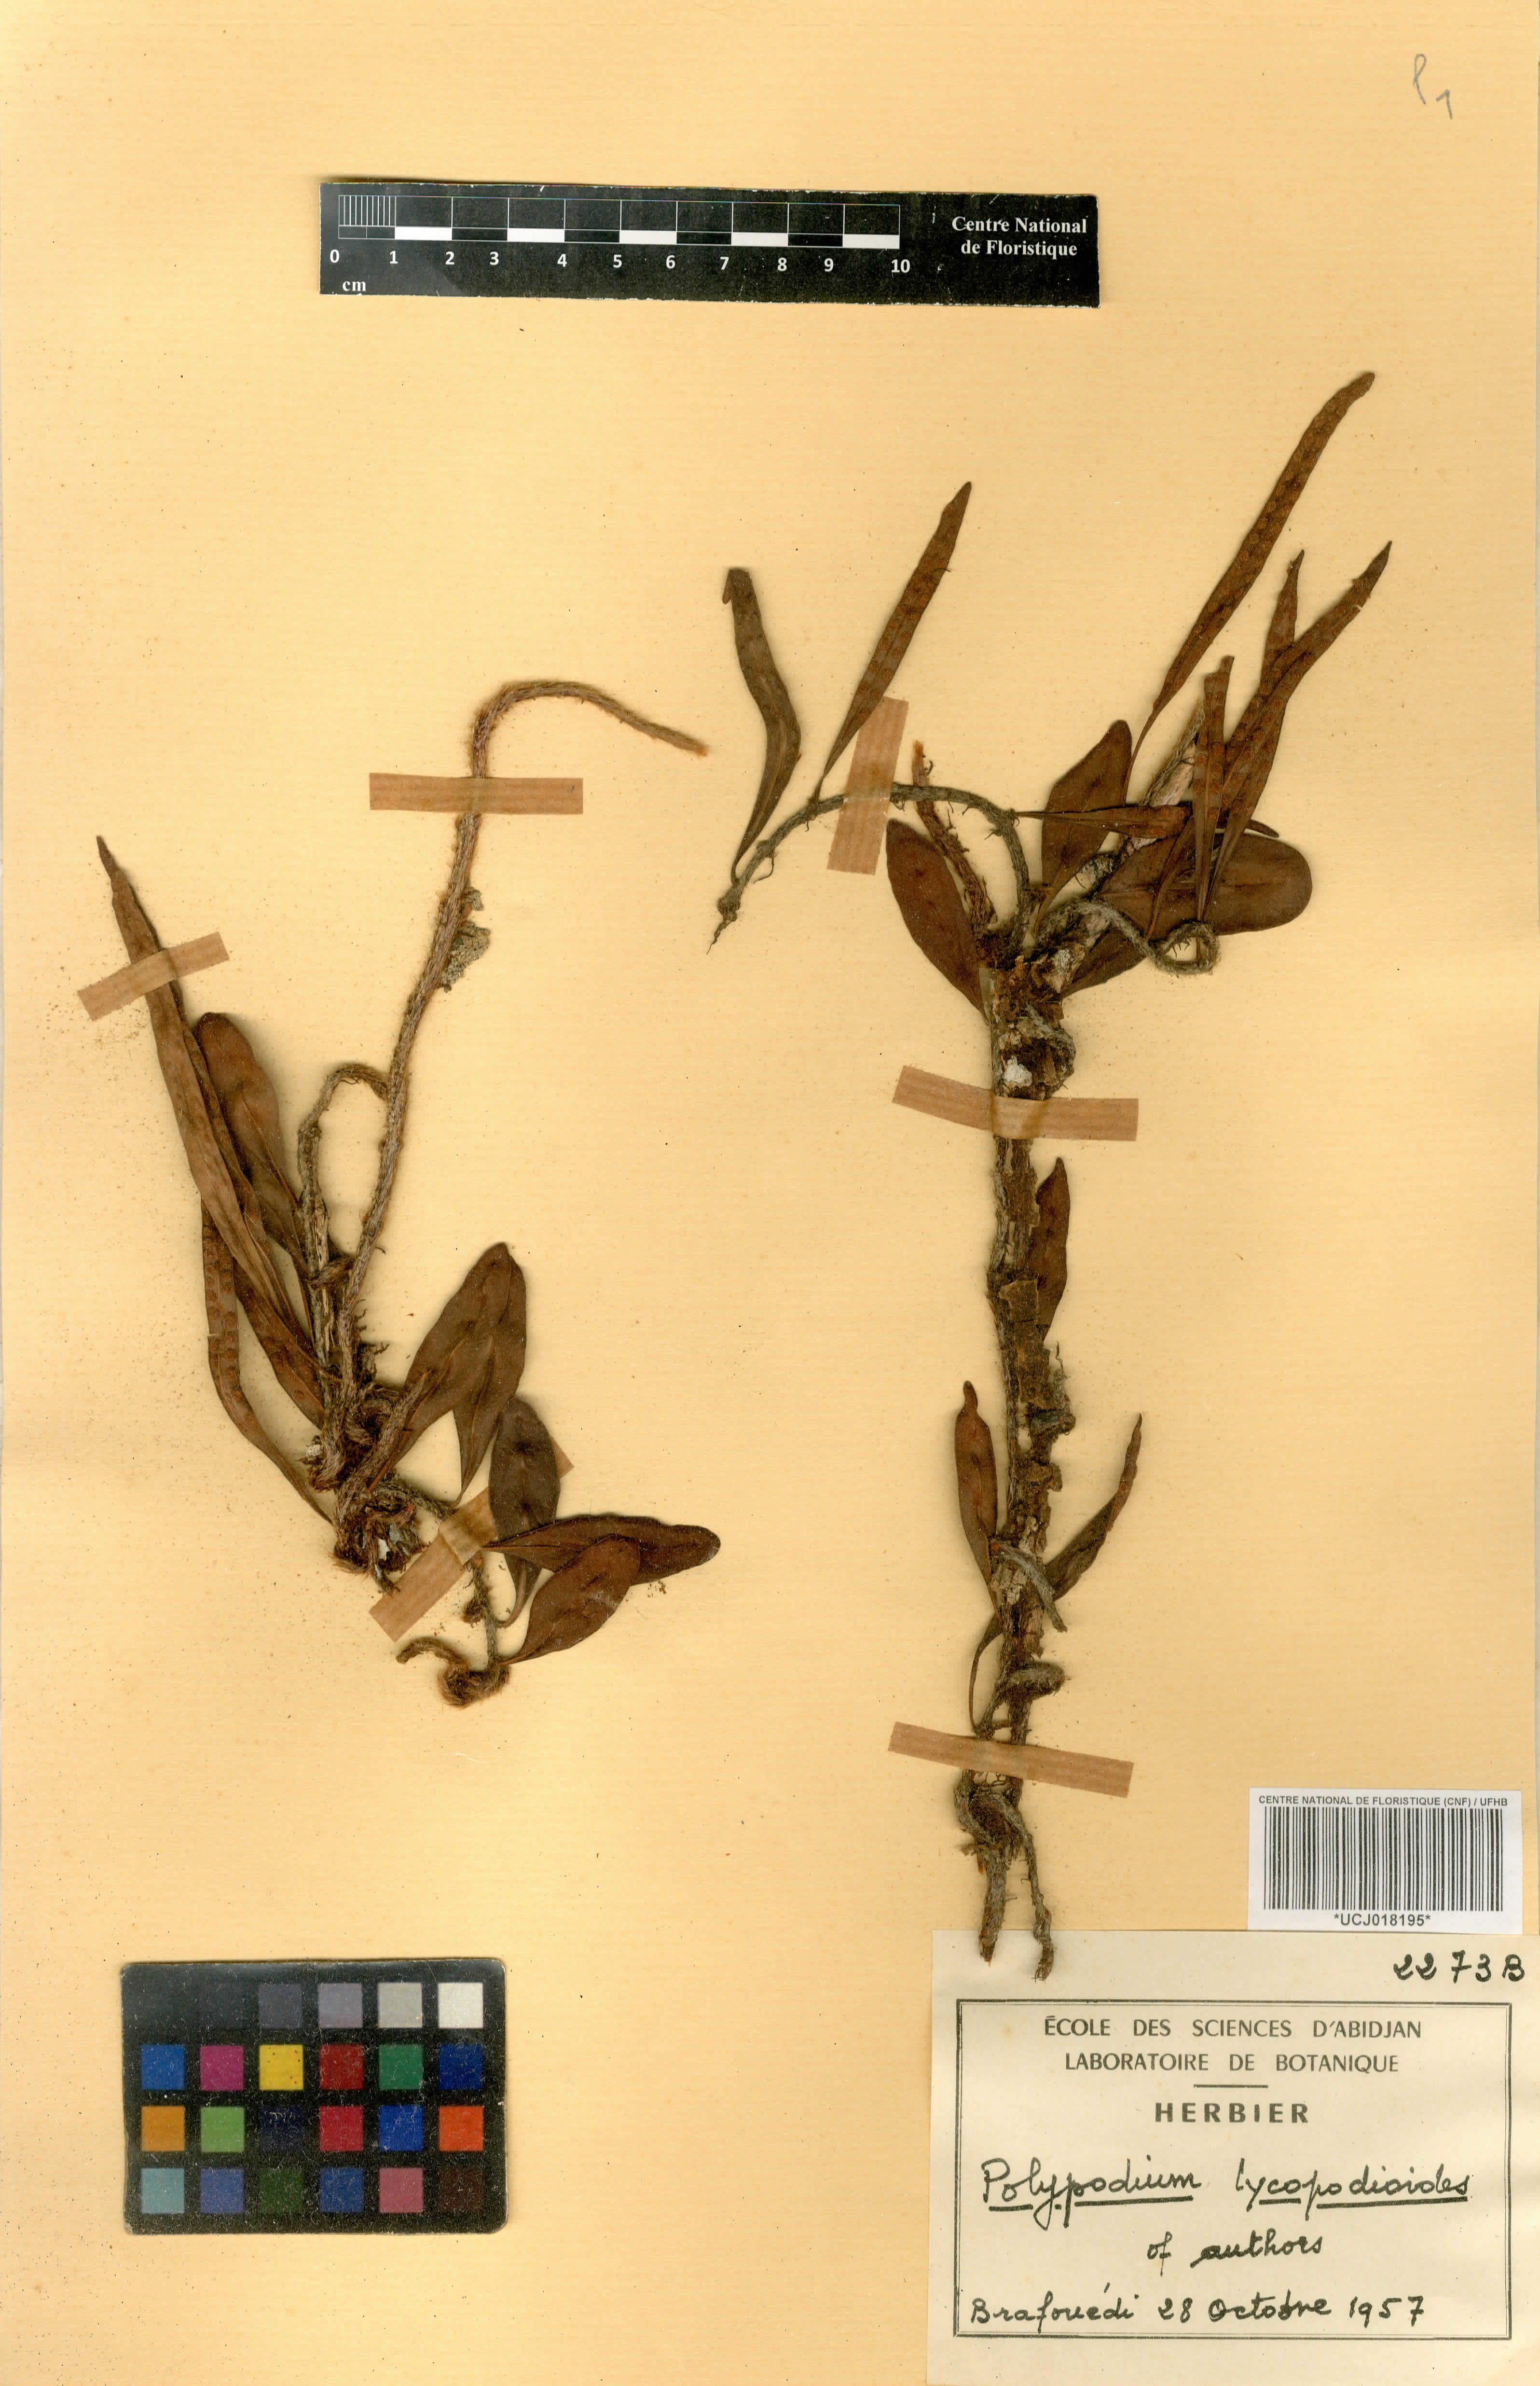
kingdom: Plantae
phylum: Tracheophyta
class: Polypodiopsida
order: Polypodiales
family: Polypodiaceae
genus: Polypodium
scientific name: Polypodium
